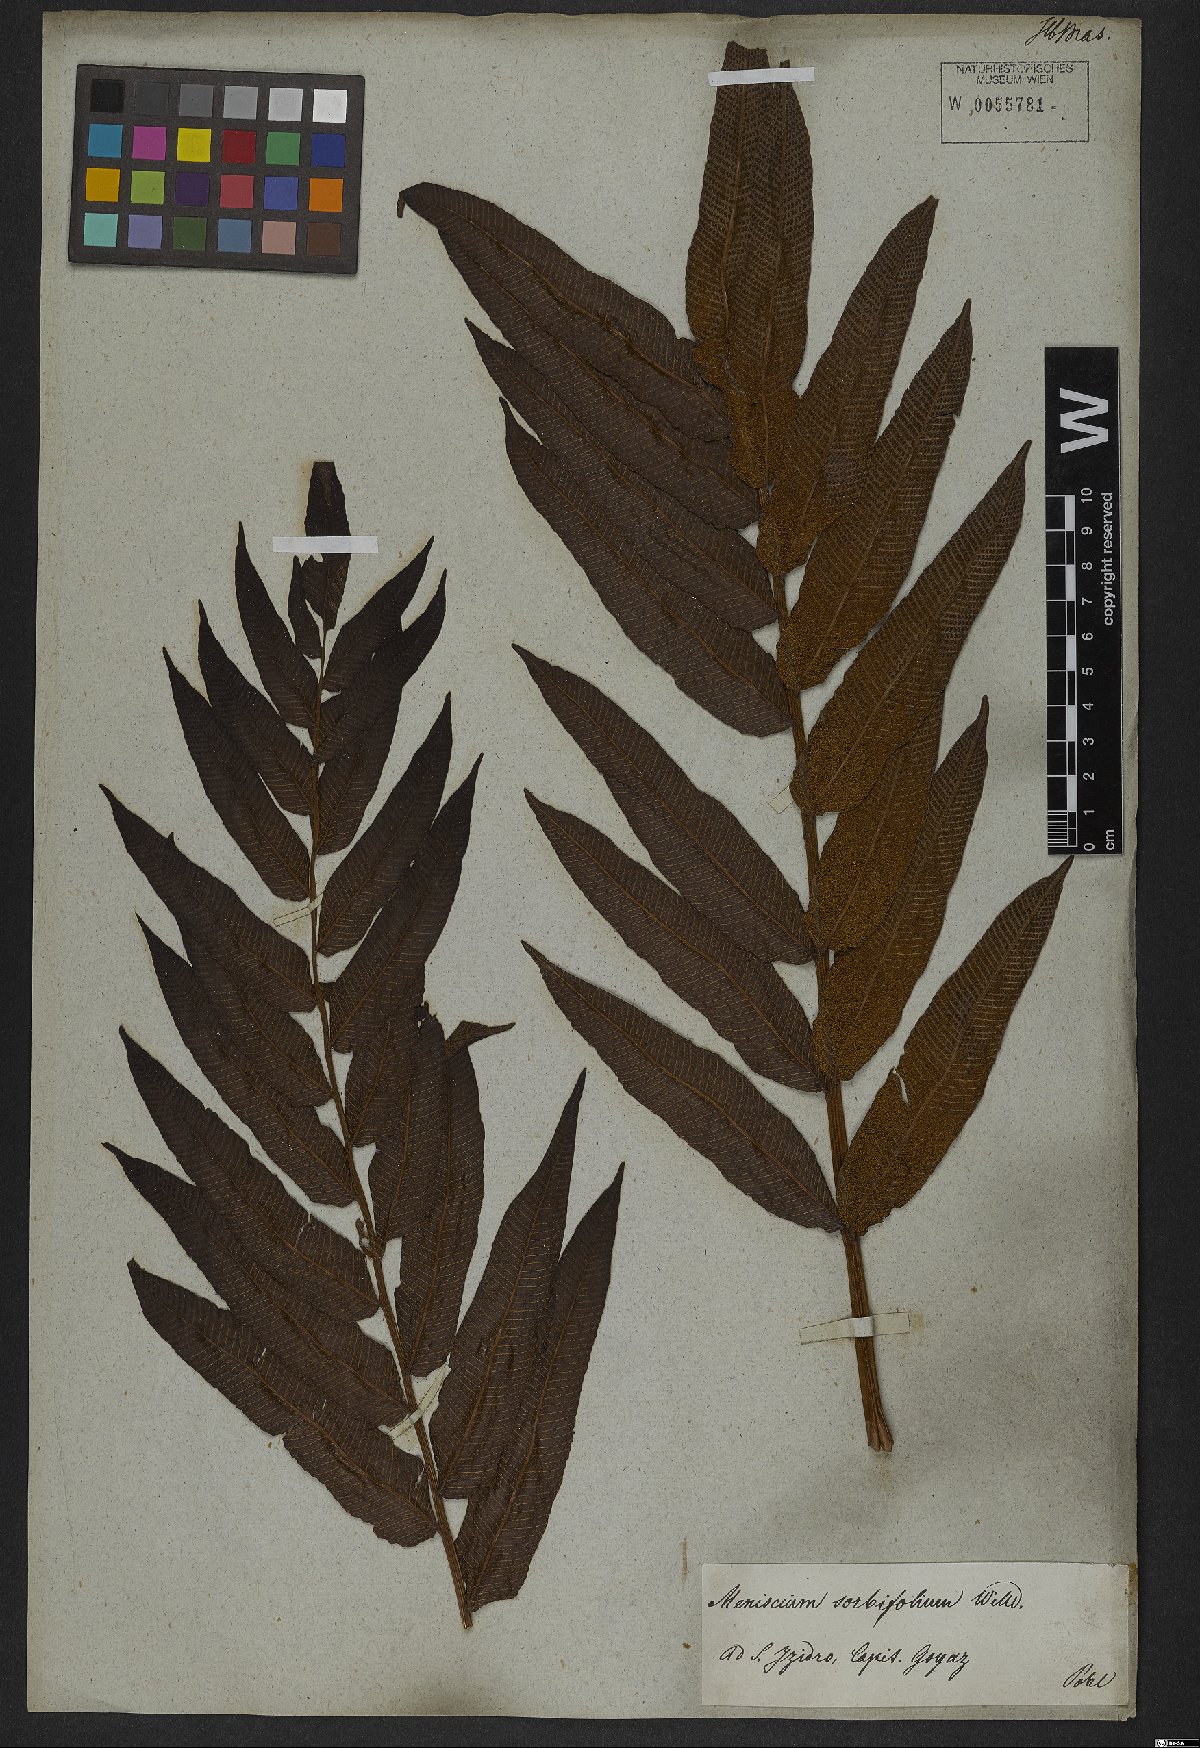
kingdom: Plantae
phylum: Tracheophyta
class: Polypodiopsida
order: Polypodiales
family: Thelypteridaceae
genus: Meniscium
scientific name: Meniscium reticulatum
